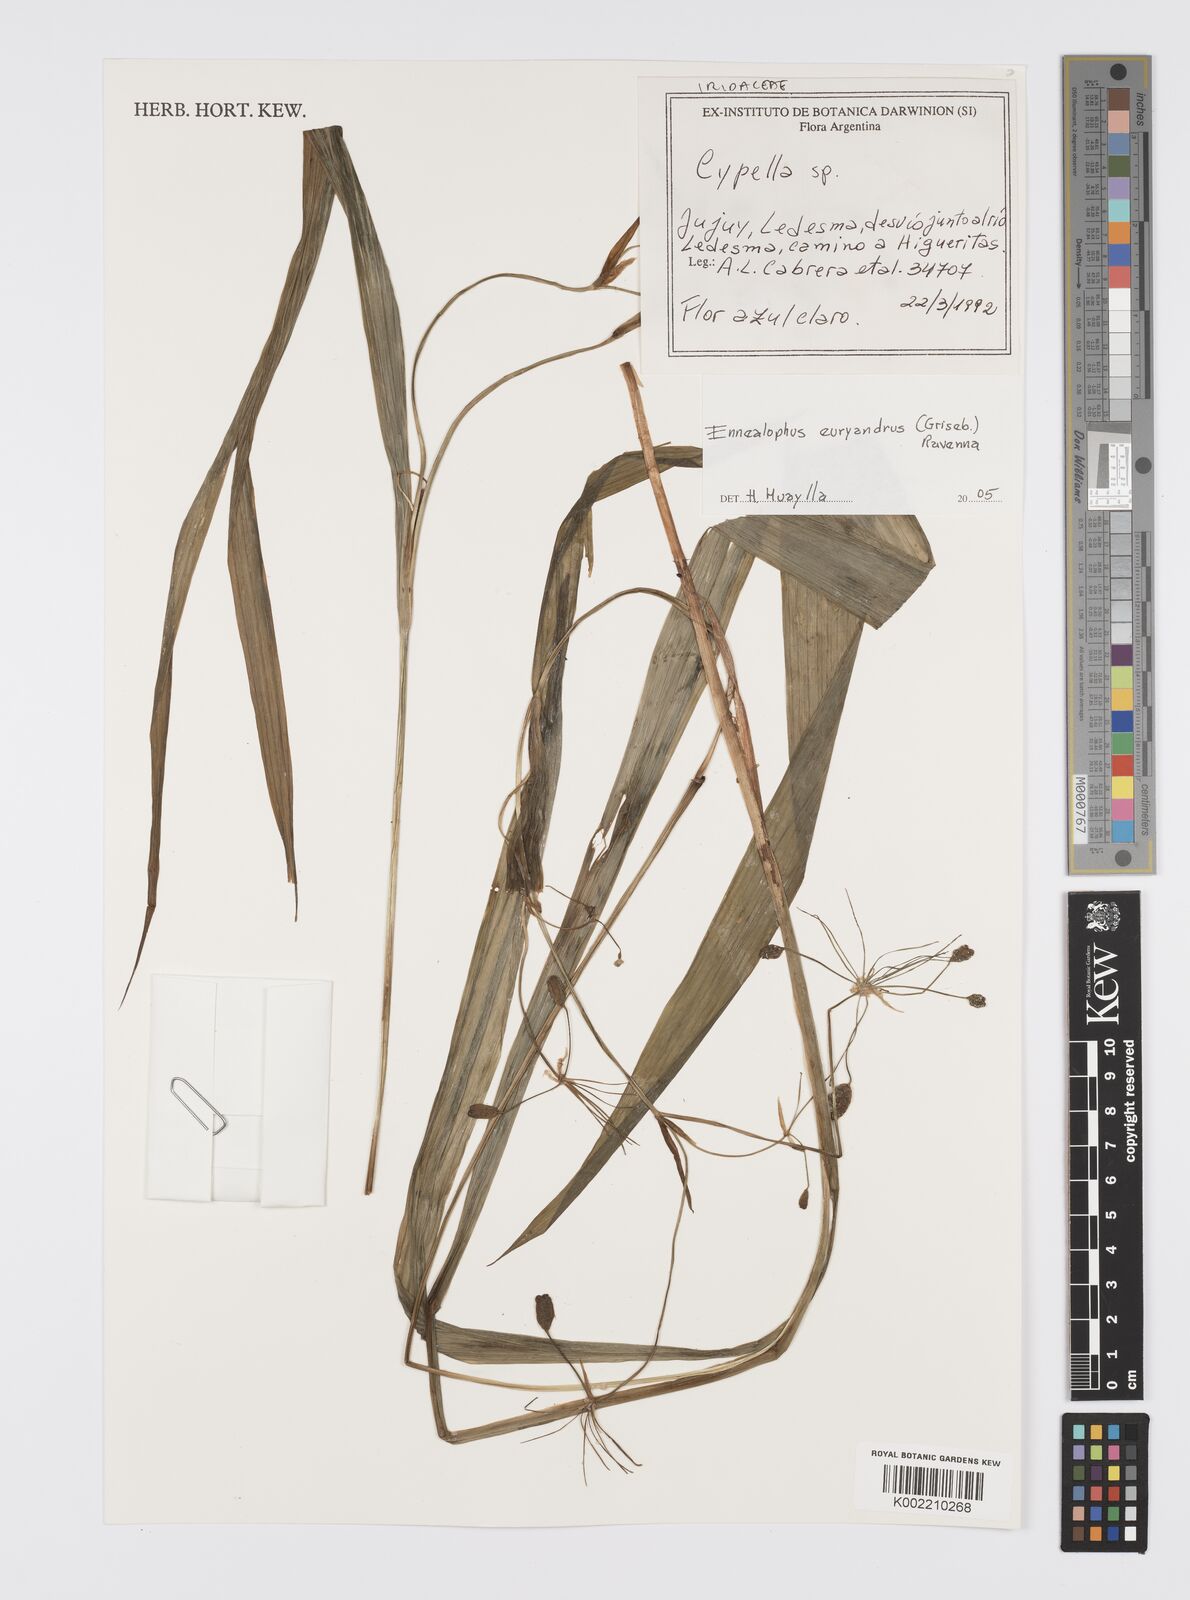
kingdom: Plantae
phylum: Tracheophyta
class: Liliopsida
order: Asparagales
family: Iridaceae
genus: Ennealophus
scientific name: Ennealophus euryandrus
